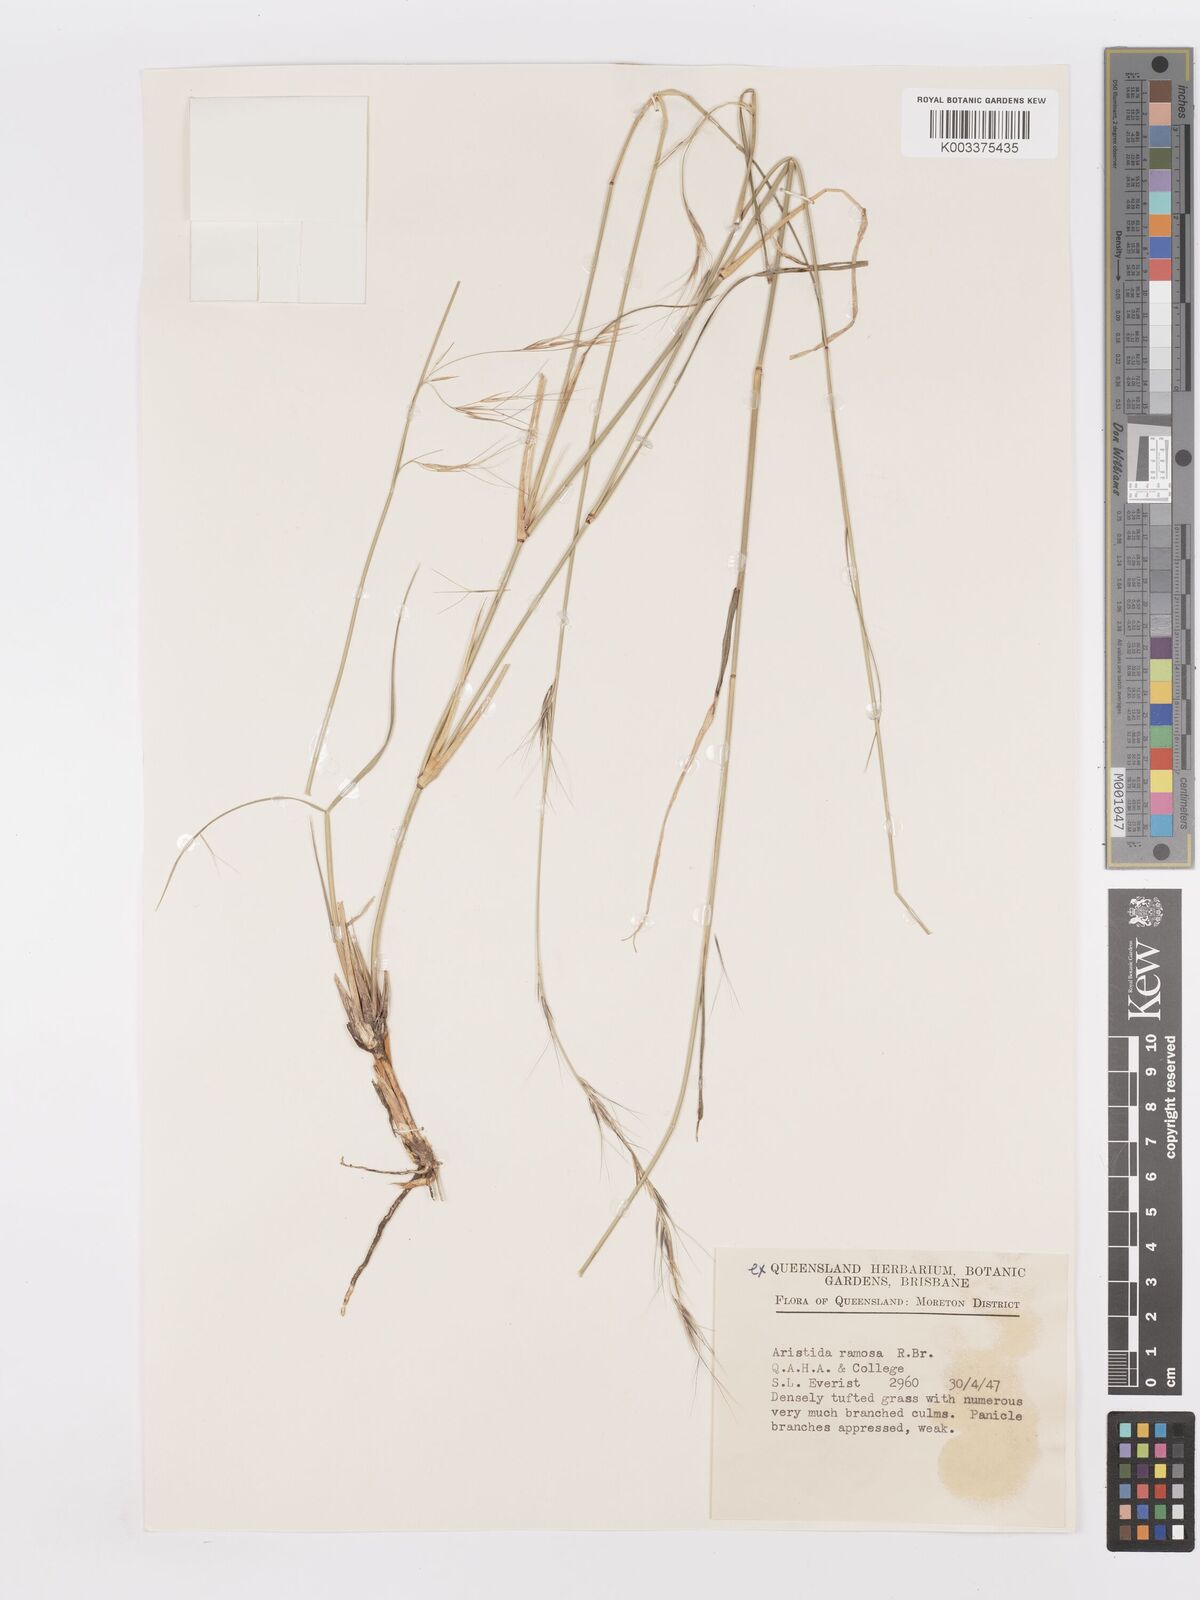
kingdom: Plantae
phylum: Tracheophyta
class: Liliopsida
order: Poales
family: Poaceae
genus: Aristida
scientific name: Aristida ramosa
